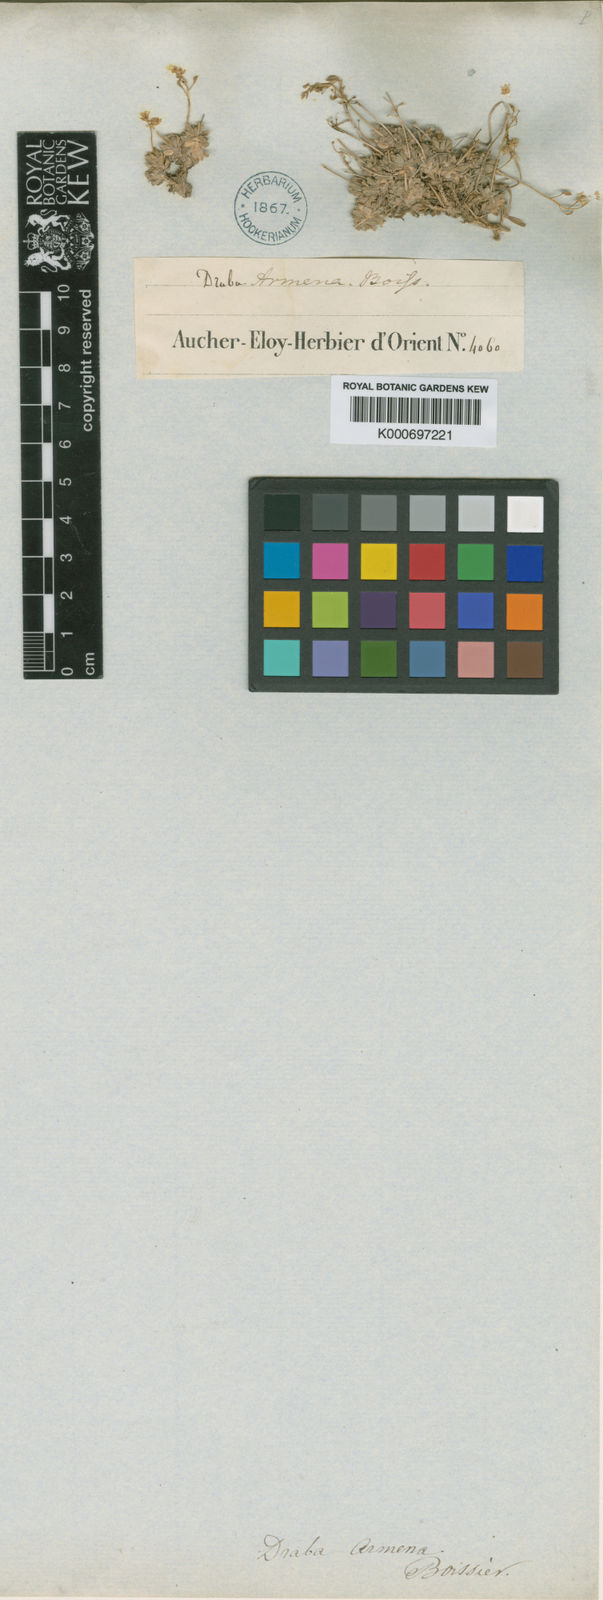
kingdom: Plantae
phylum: Tracheophyta
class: Magnoliopsida
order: Brassicales
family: Brassicaceae
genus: Draba
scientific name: Draba
